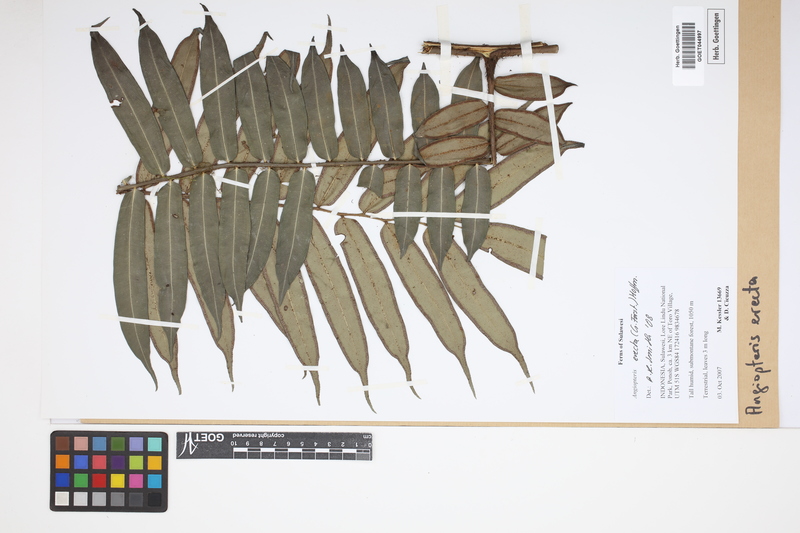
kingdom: Plantae
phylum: Tracheophyta
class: Polypodiopsida
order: Marattiales
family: Marattiaceae
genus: Angiopteris
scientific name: Angiopteris evecta
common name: Mule's-foot fern
